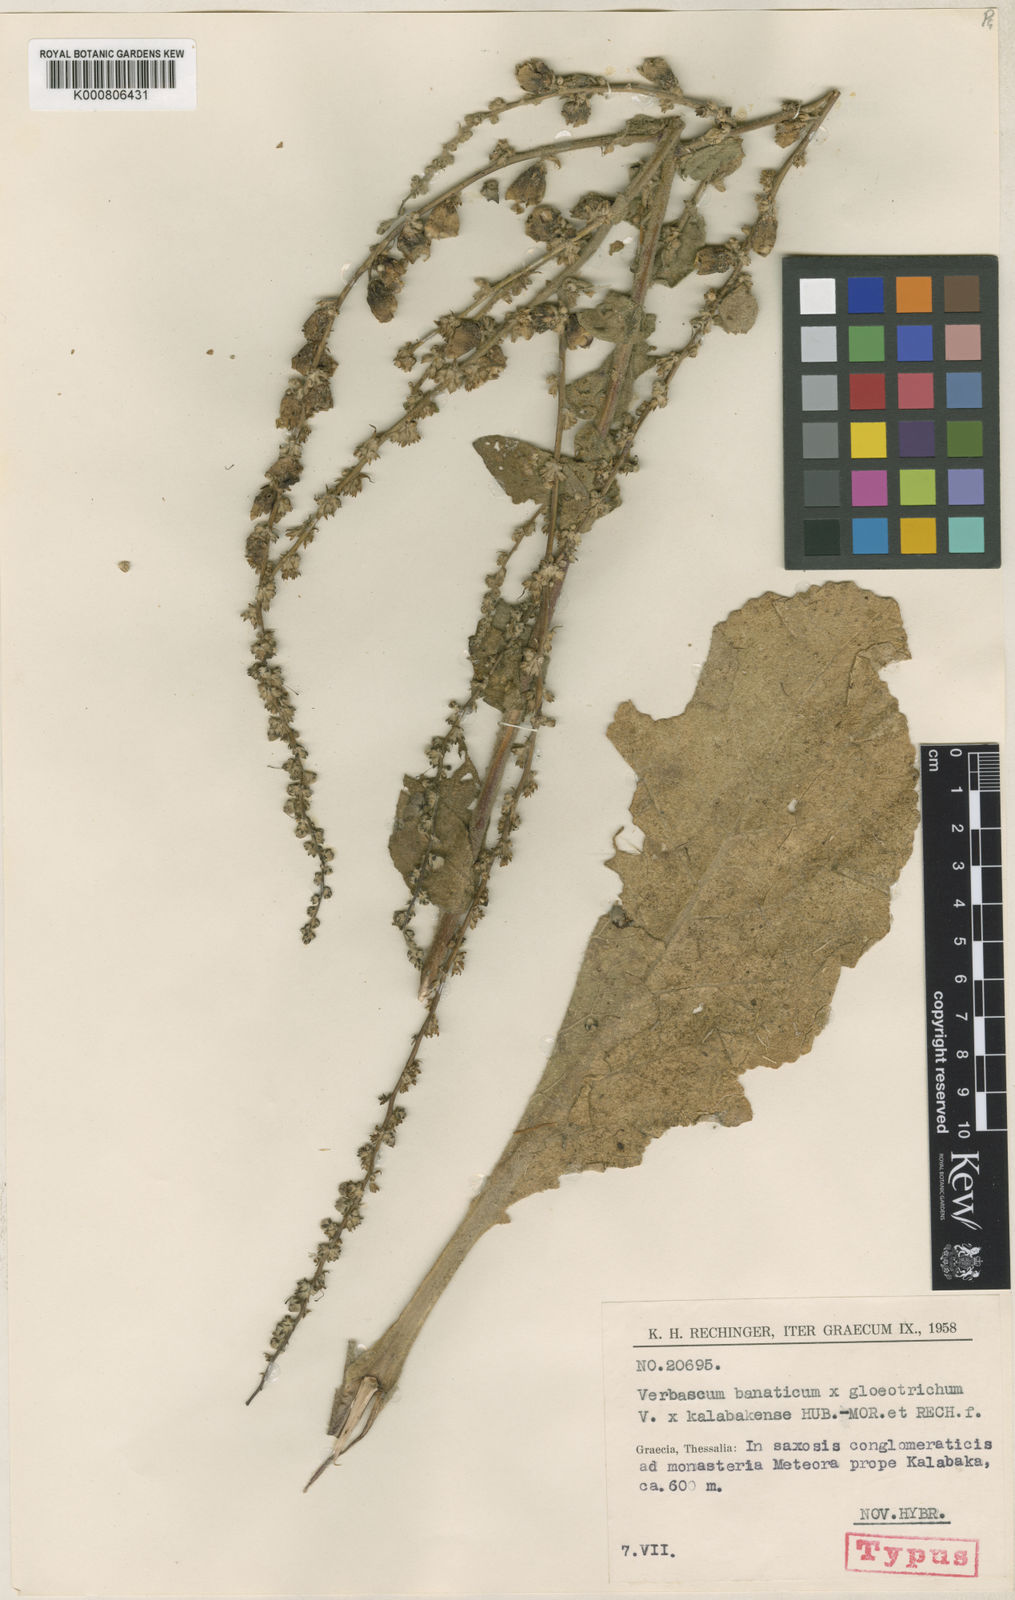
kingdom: Plantae
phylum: Tracheophyta
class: Magnoliopsida
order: Lamiales
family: Scrophulariaceae
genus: Verbascum
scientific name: Verbascum kalabakense
